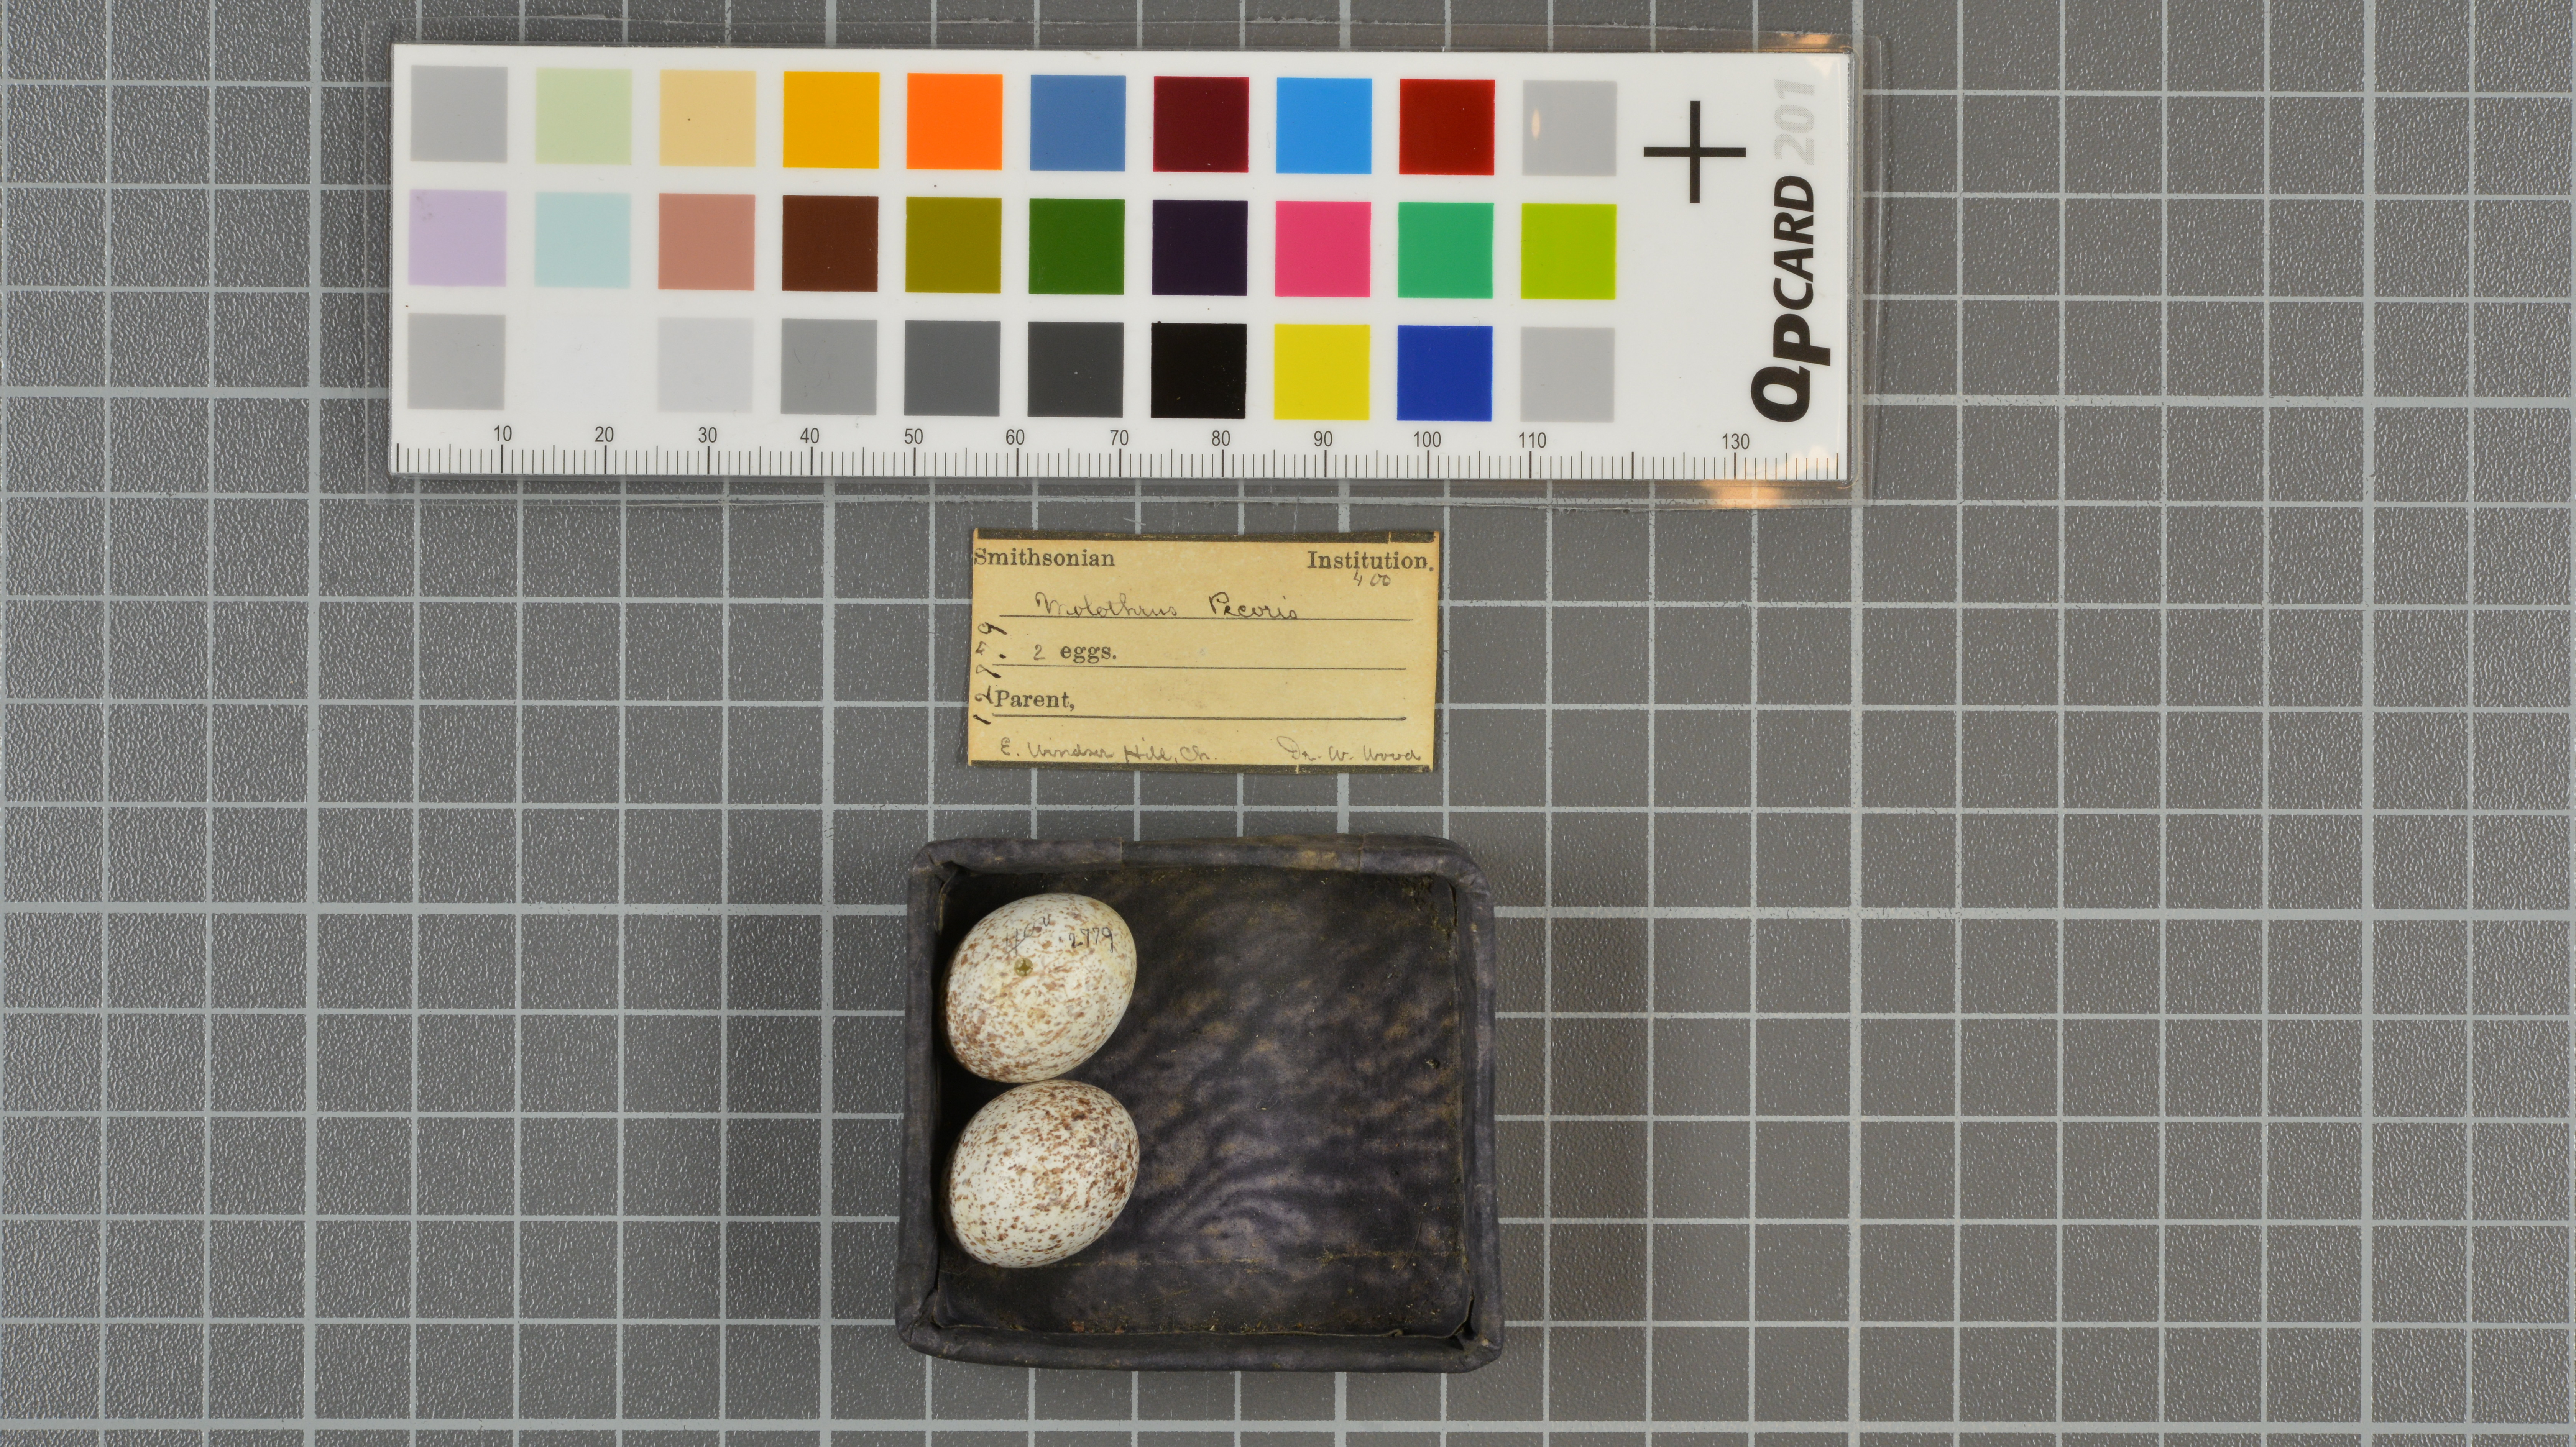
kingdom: Animalia
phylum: Chordata
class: Aves
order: Passeriformes
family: Icteridae
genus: Molothrus
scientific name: Molothrus ater
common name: Brown-headed cowbird
